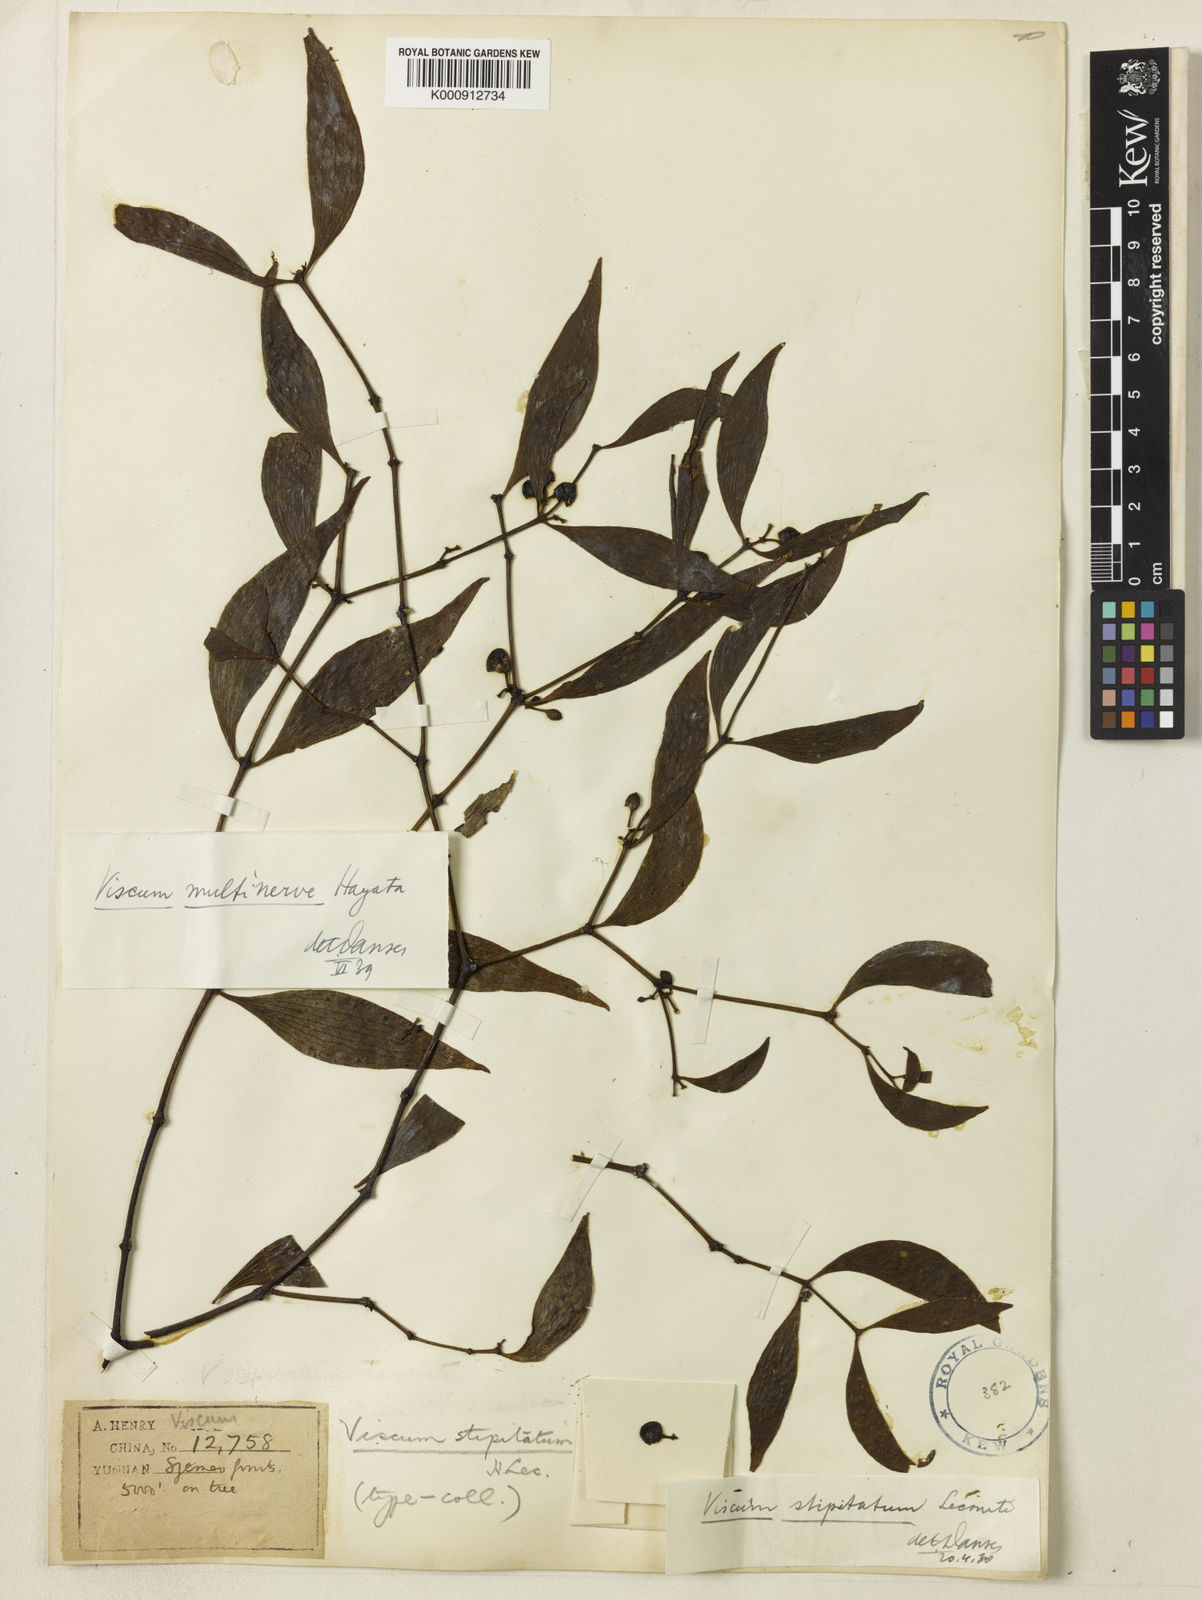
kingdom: Plantae
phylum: Tracheophyta
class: Magnoliopsida
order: Santalales
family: Viscaceae
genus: Viscum
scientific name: Viscum multinerve
